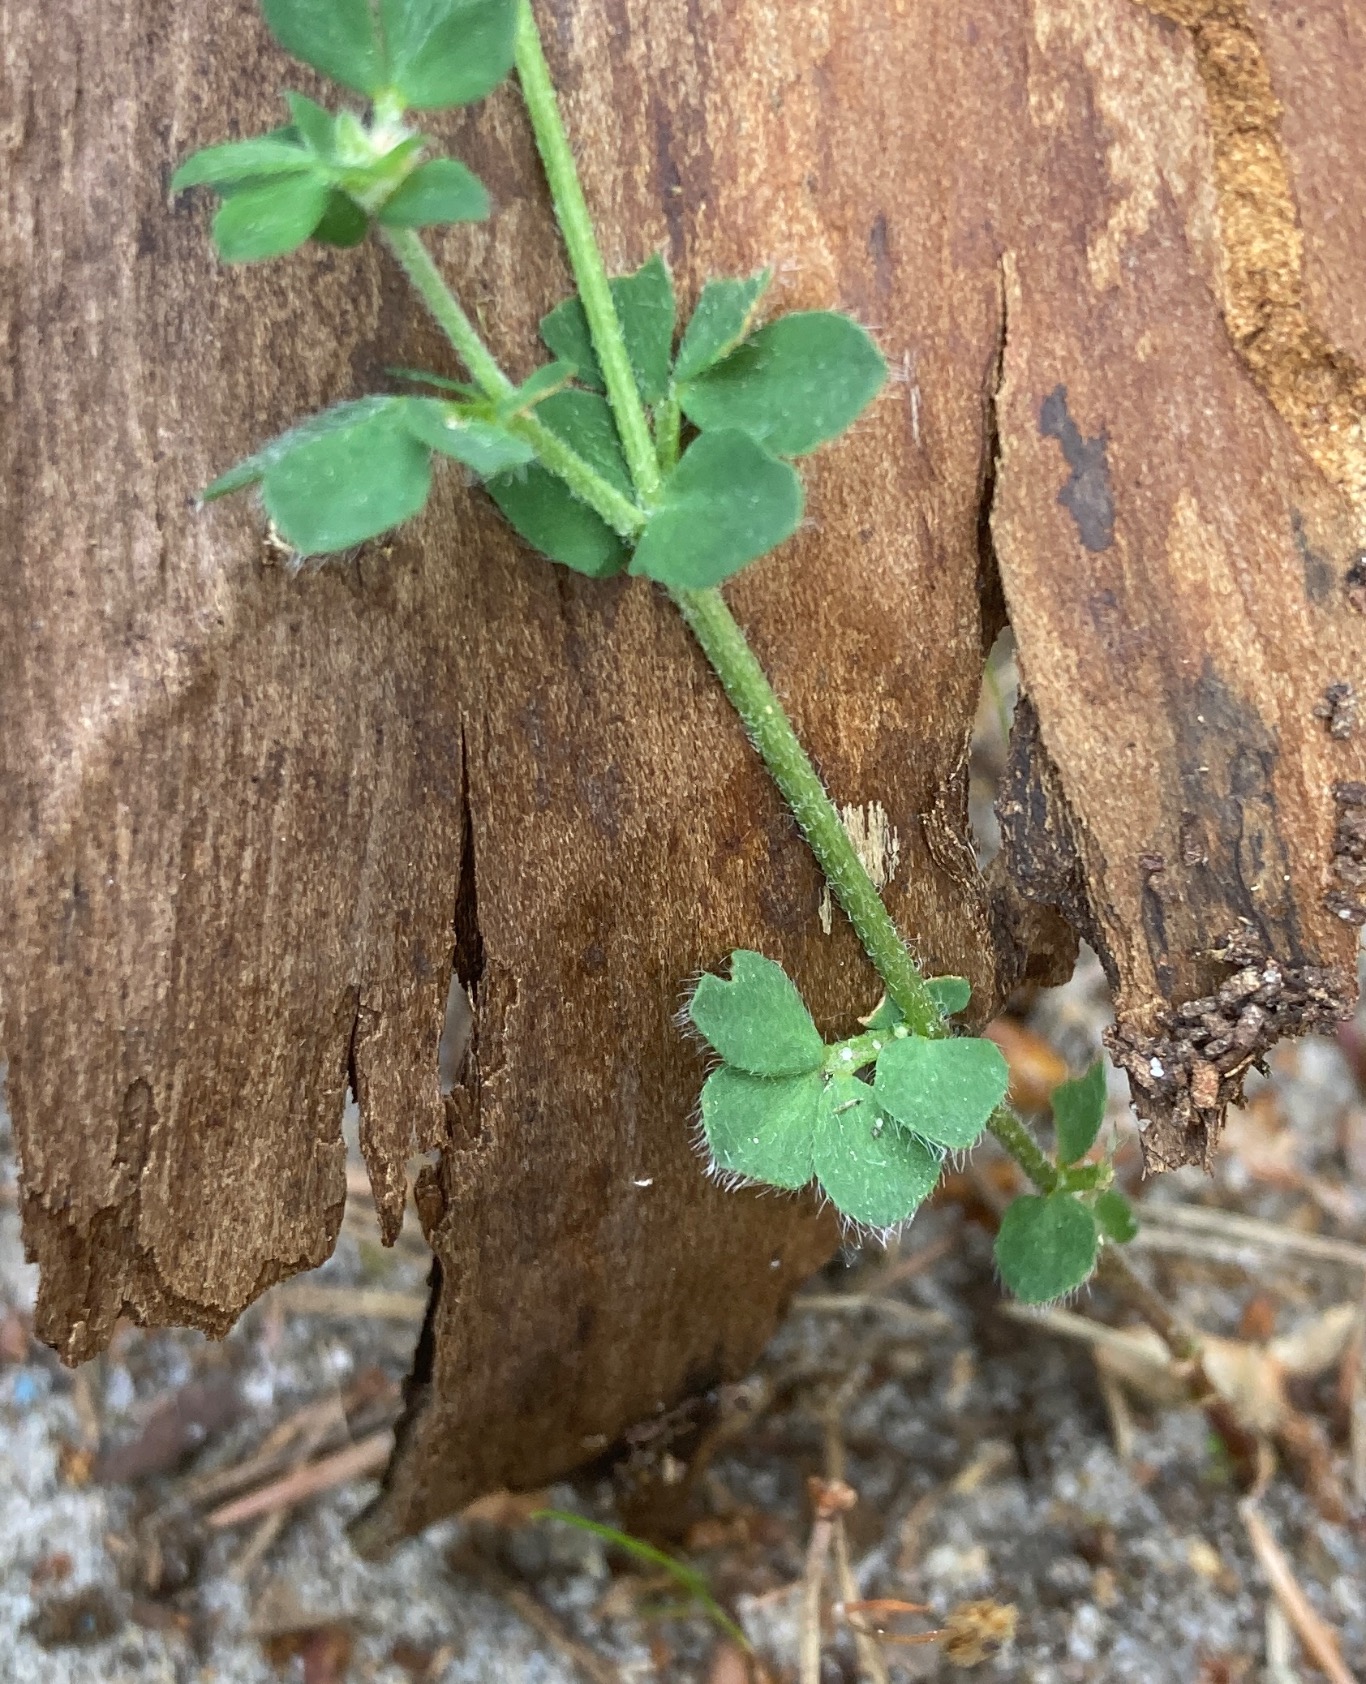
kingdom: Plantae
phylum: Tracheophyta
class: Magnoliopsida
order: Fabales
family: Fabaceae
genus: Lotus
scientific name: Lotus corniculatus
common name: Almindelig kællingetand
